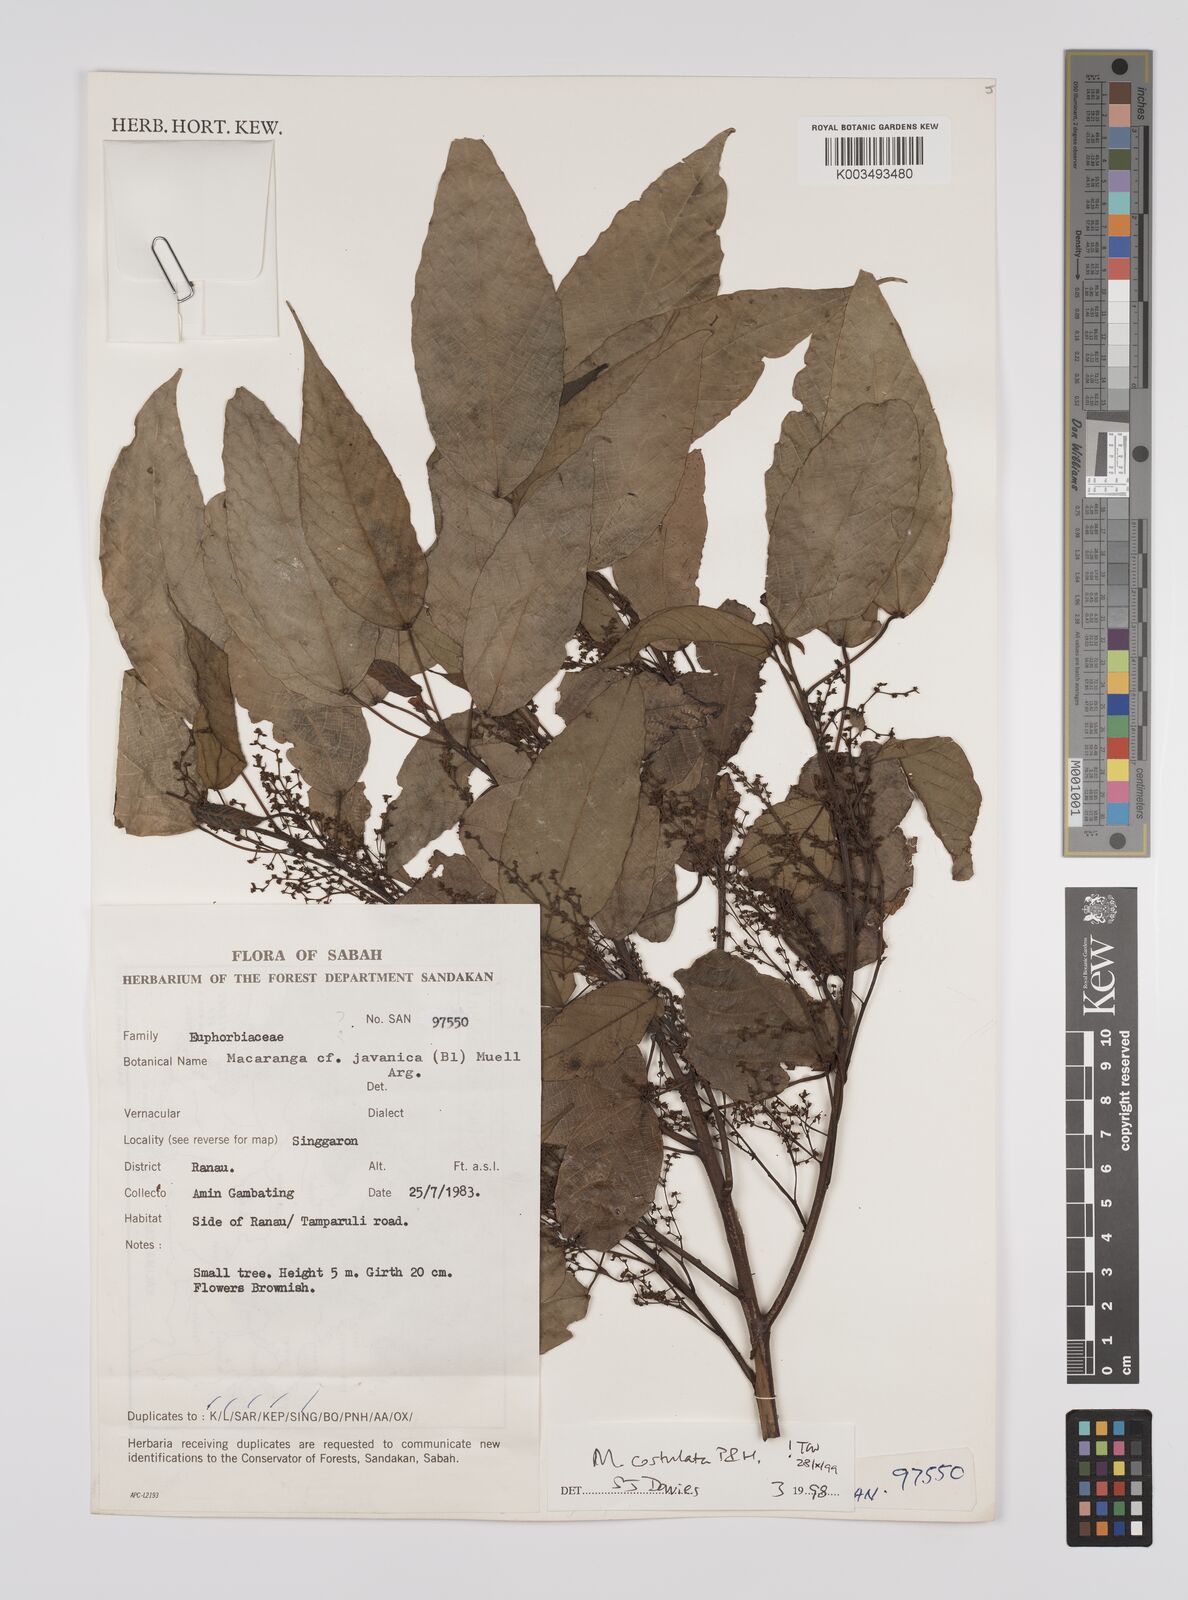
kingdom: Plantae
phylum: Tracheophyta
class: Magnoliopsida
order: Malpighiales
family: Euphorbiaceae
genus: Macaranga
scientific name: Macaranga costulata
